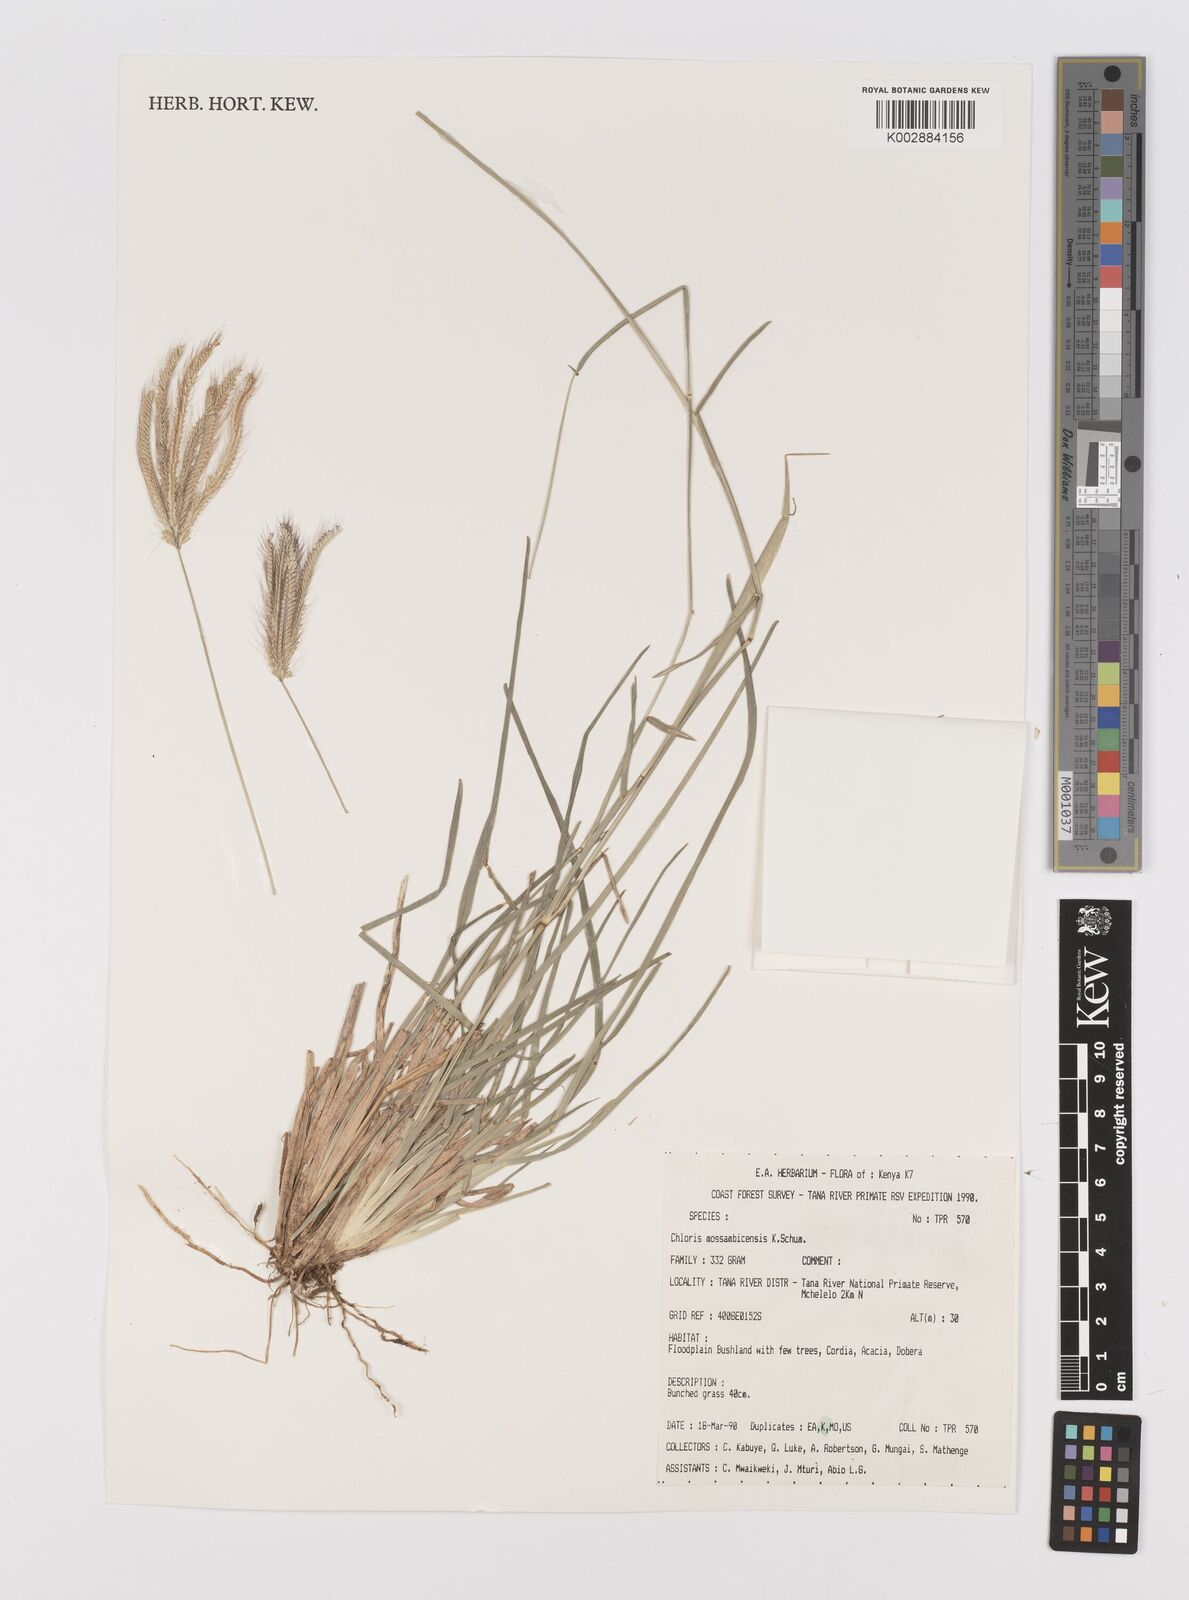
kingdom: Plantae
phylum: Tracheophyta
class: Liliopsida
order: Poales
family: Poaceae
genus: Chloris
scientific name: Chloris mossambicensis
